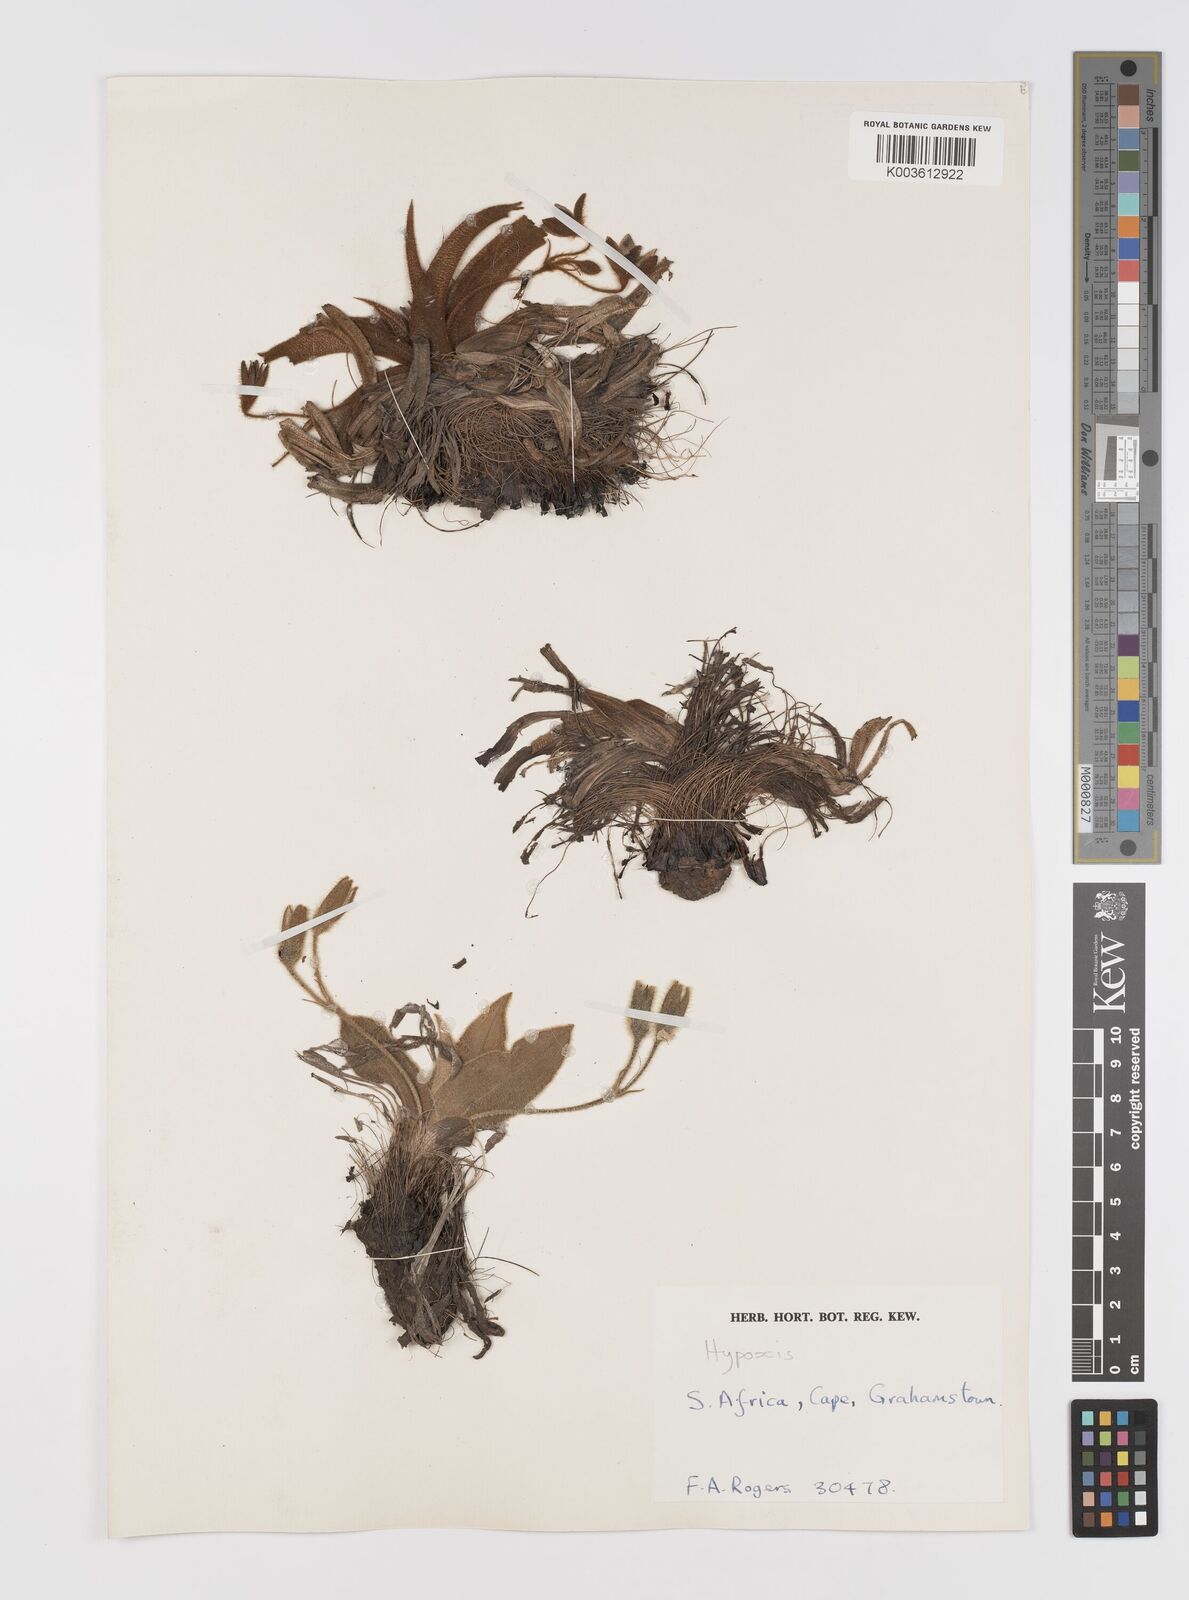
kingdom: Plantae
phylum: Tracheophyta
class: Liliopsida
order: Asparagales
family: Hypoxidaceae
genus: Hypoxis
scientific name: Hypoxis multiceps
